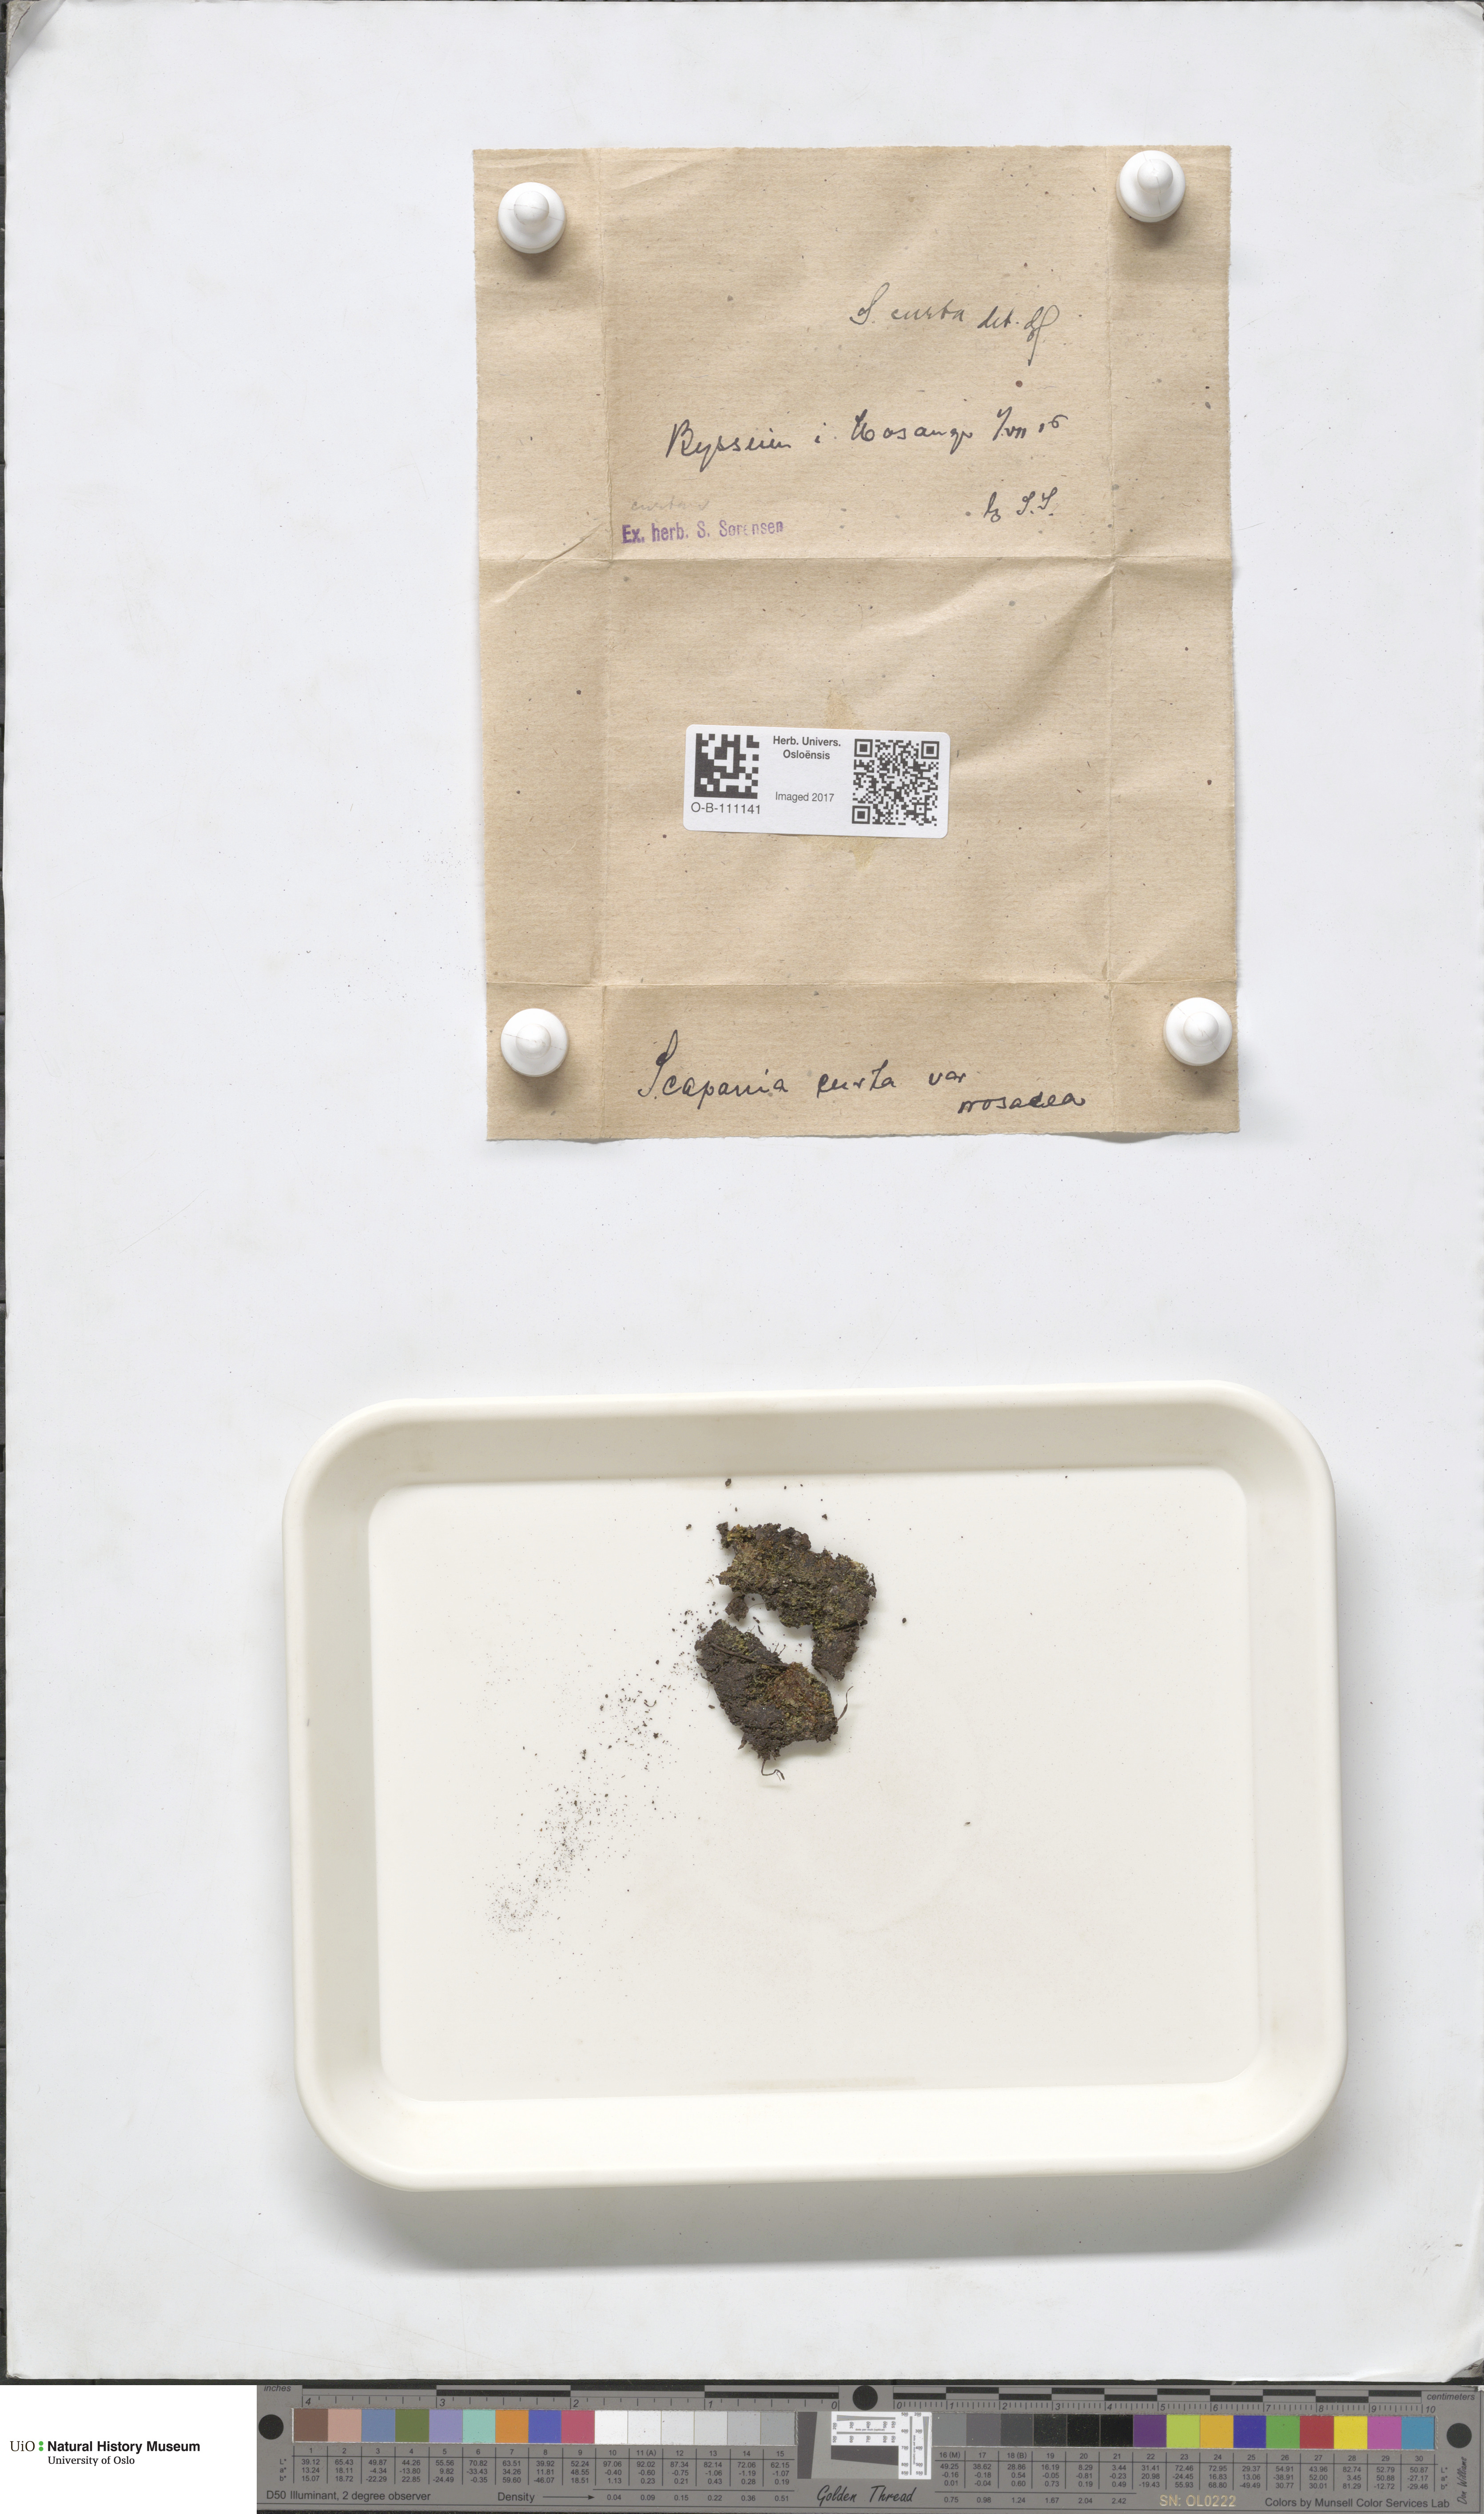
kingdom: Plantae
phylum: Marchantiophyta
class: Jungermanniopsida
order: Jungermanniales
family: Scapaniaceae
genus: Scapania
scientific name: Scapania curta
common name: Least earwort
